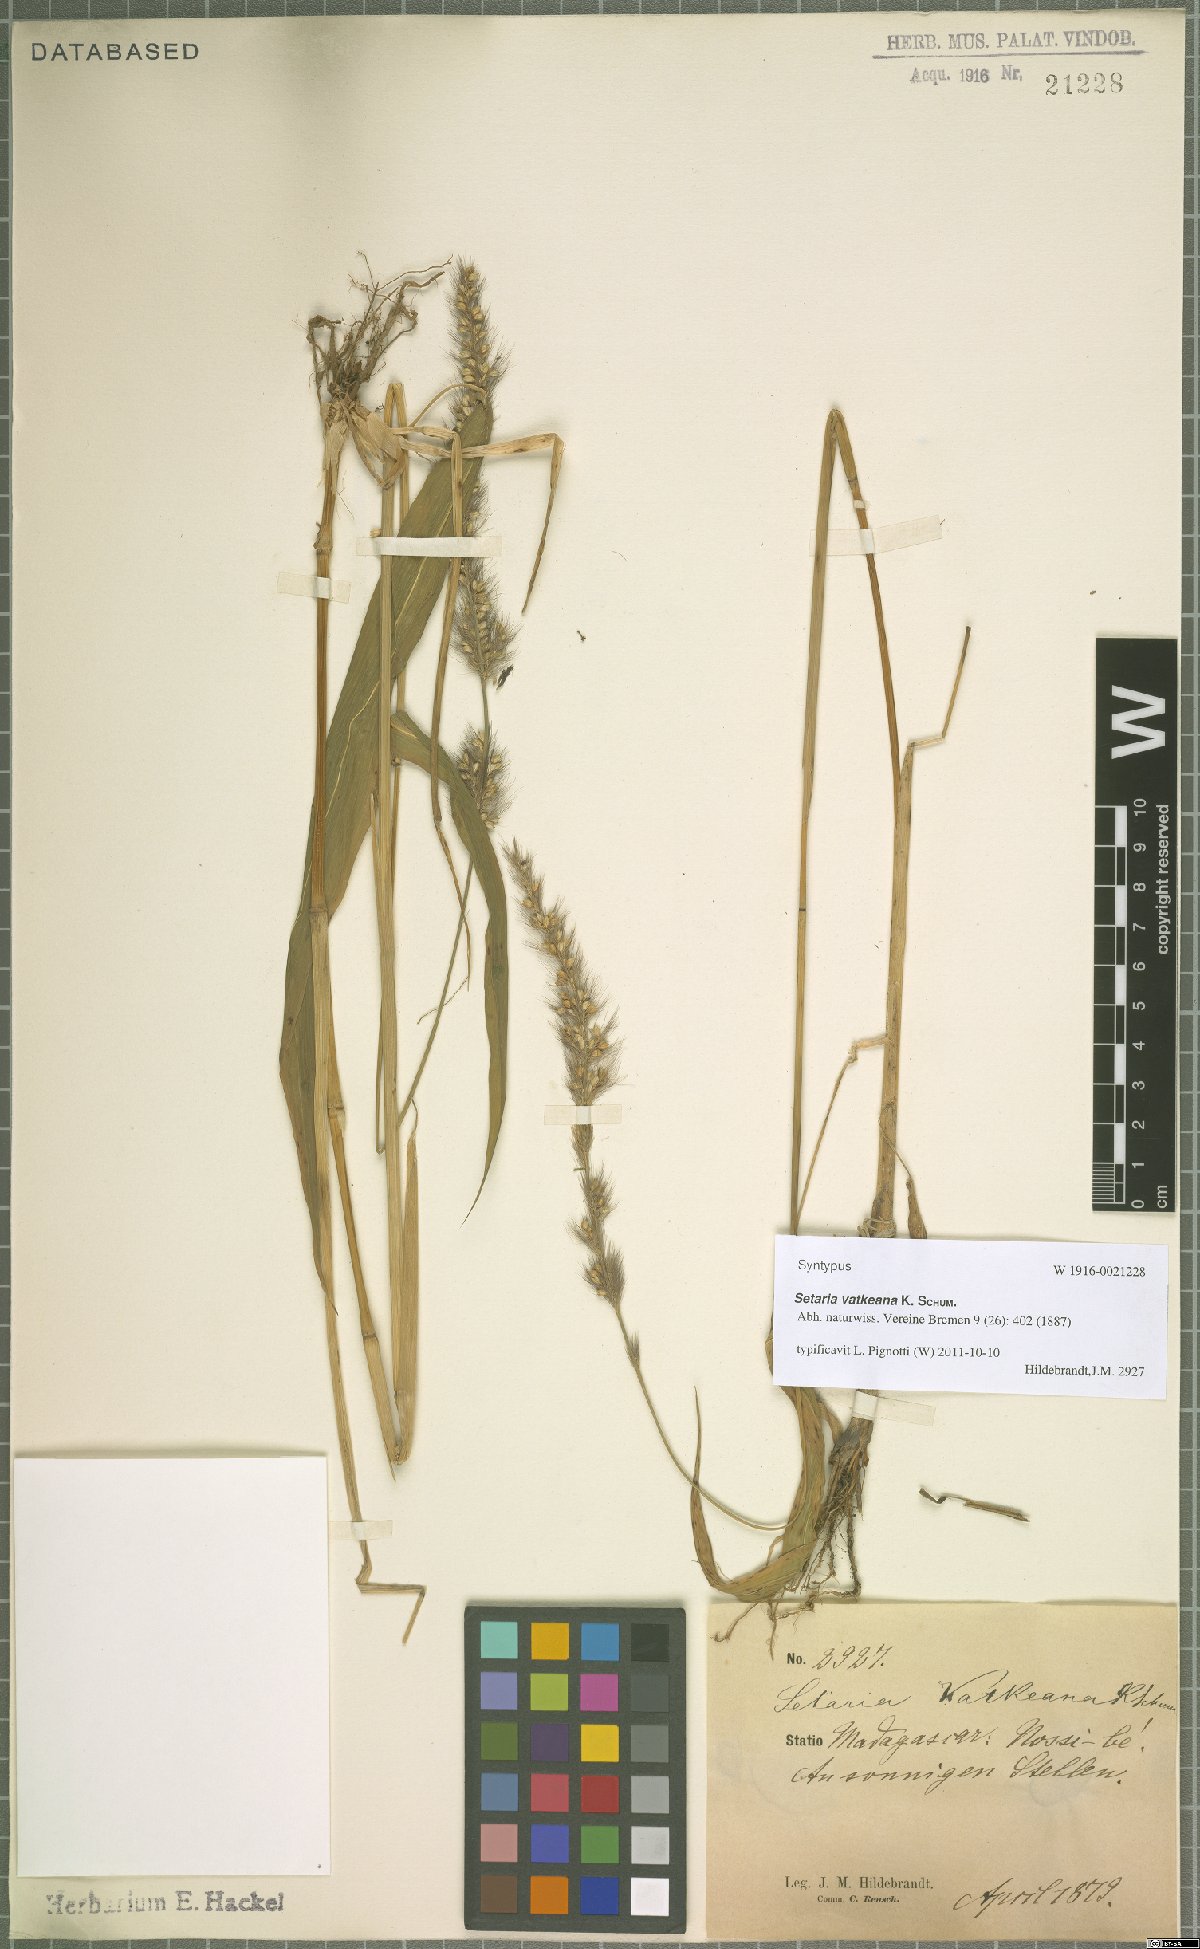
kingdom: Plantae
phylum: Tracheophyta
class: Liliopsida
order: Poales
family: Poaceae
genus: Setaria
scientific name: Setaria vatkeana
